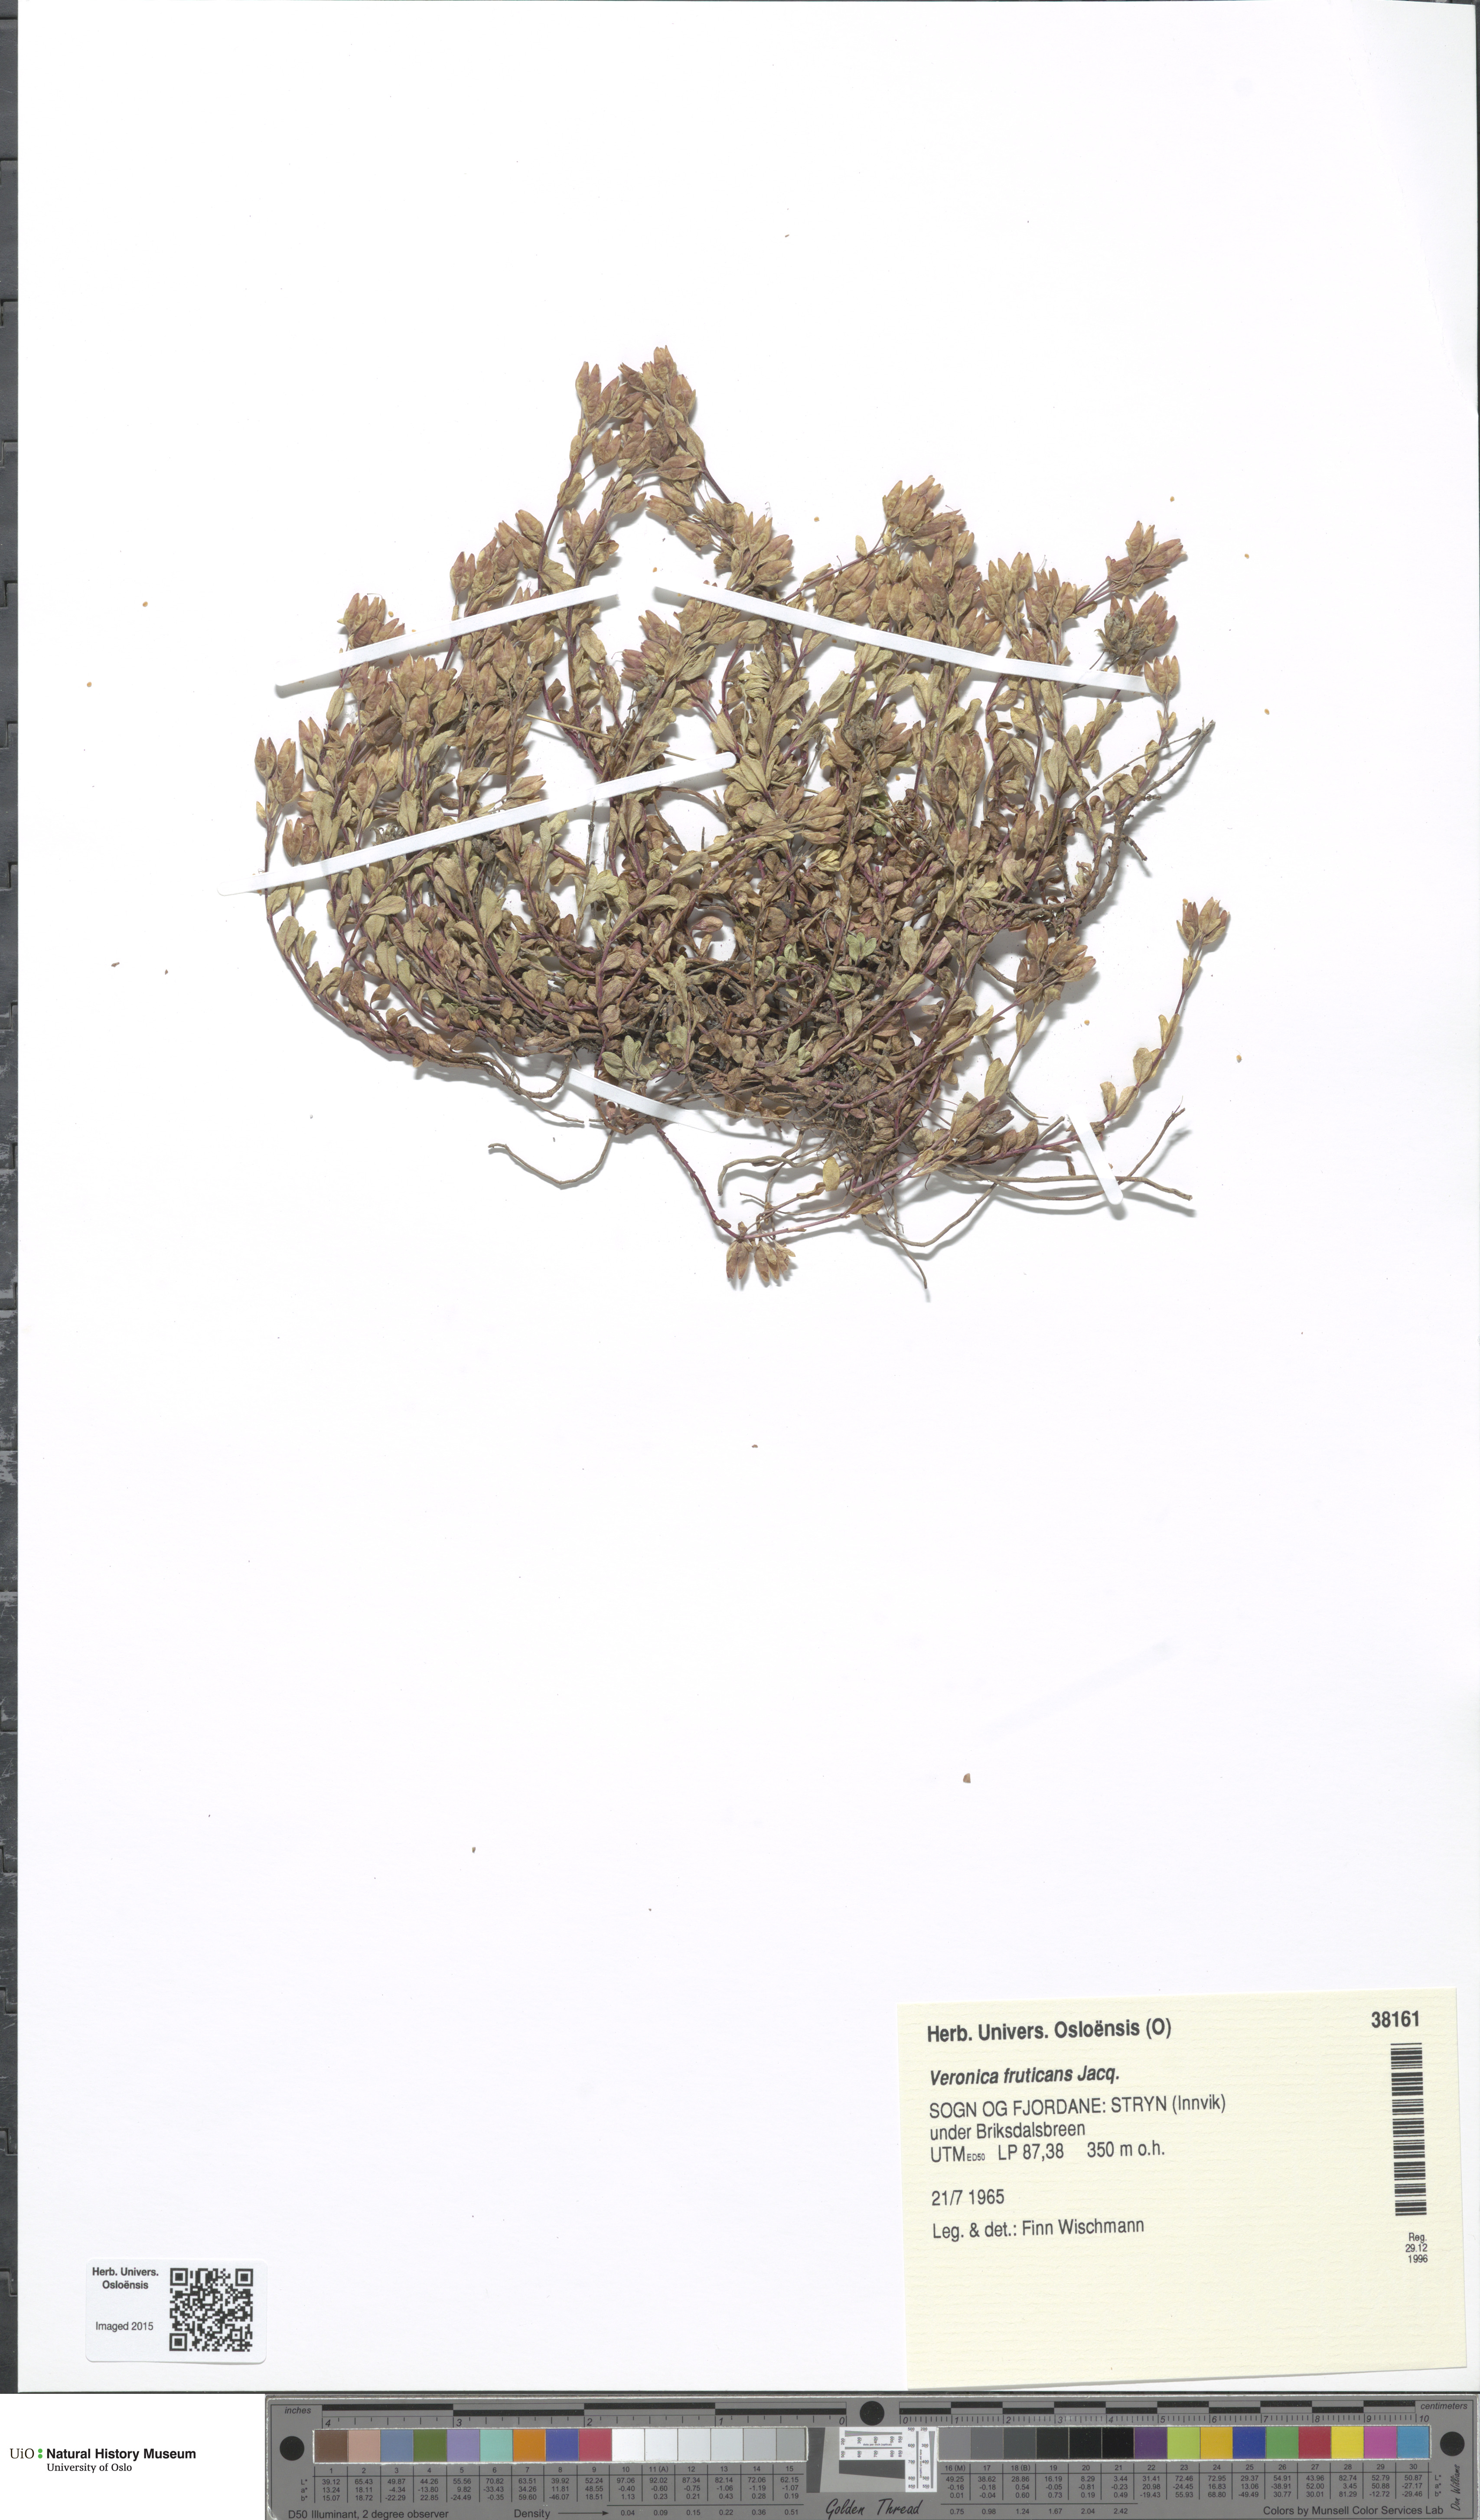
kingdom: Plantae
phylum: Tracheophyta
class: Magnoliopsida
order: Lamiales
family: Plantaginaceae
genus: Veronica
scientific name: Veronica fruticans
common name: Rock speedwell
